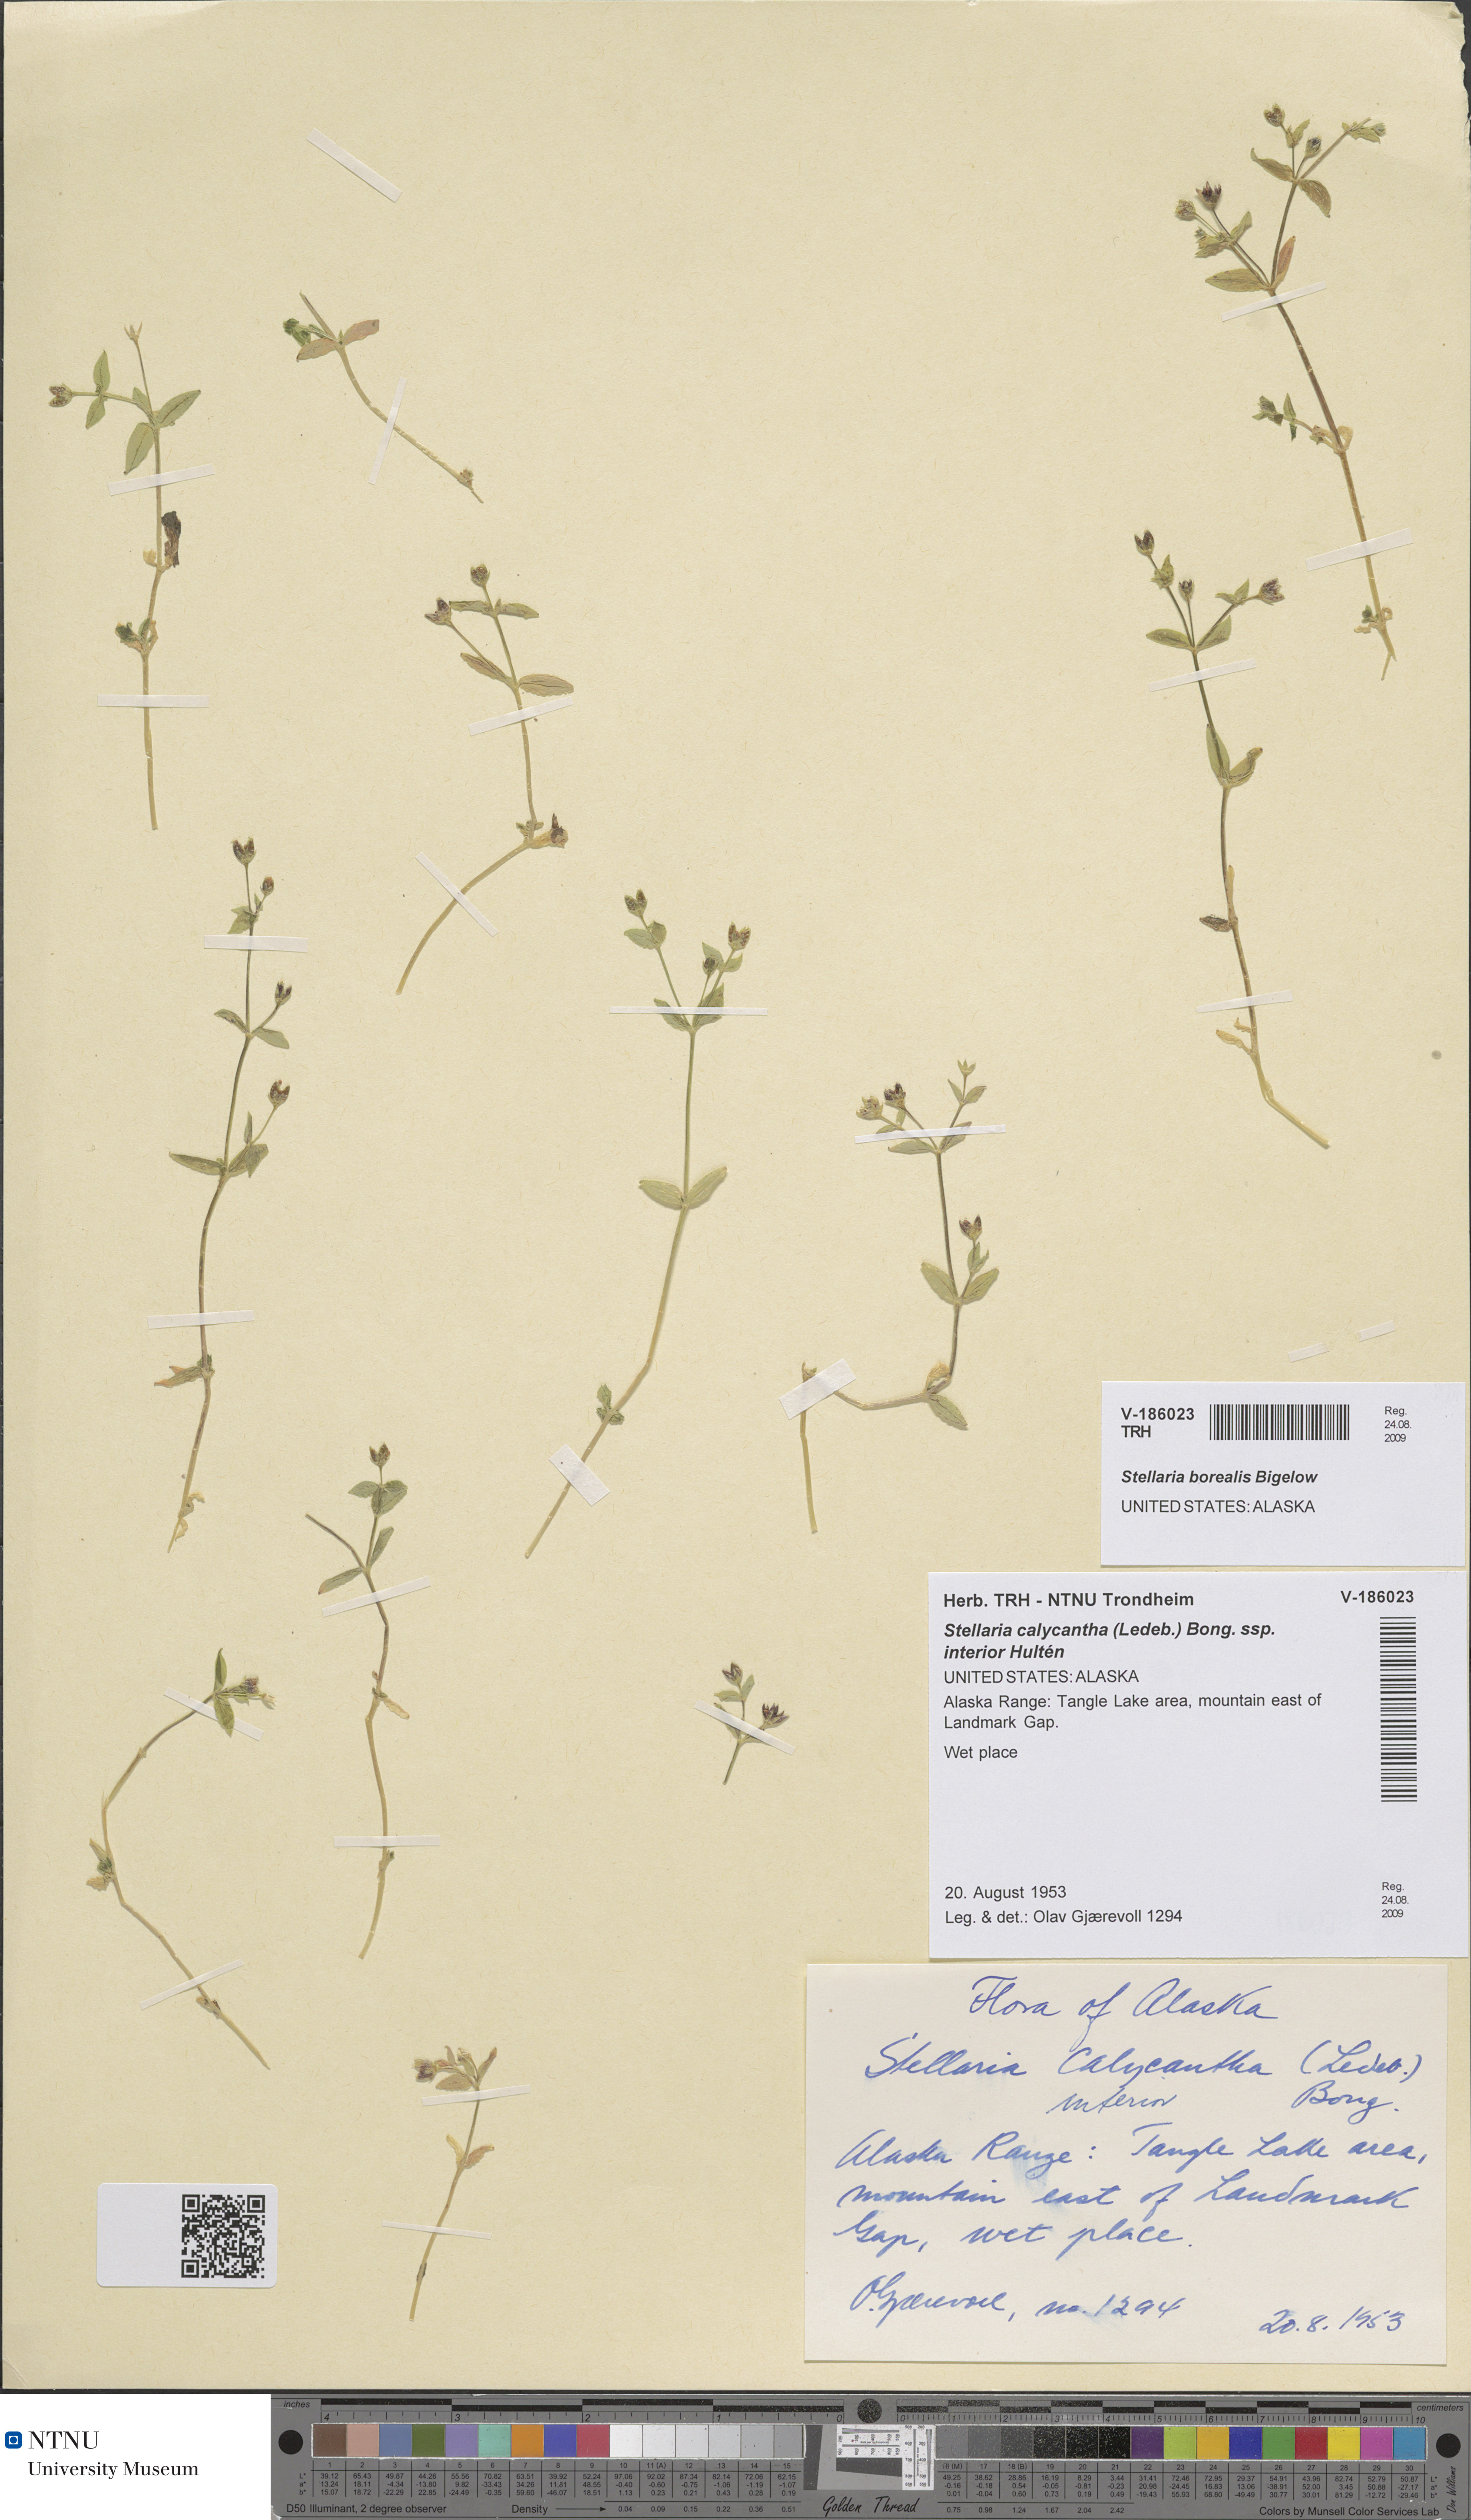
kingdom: Plantae
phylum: Tracheophyta
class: Magnoliopsida
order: Caryophyllales
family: Caryophyllaceae
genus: Stellaria
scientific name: Stellaria borealis
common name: Boreal starwort
